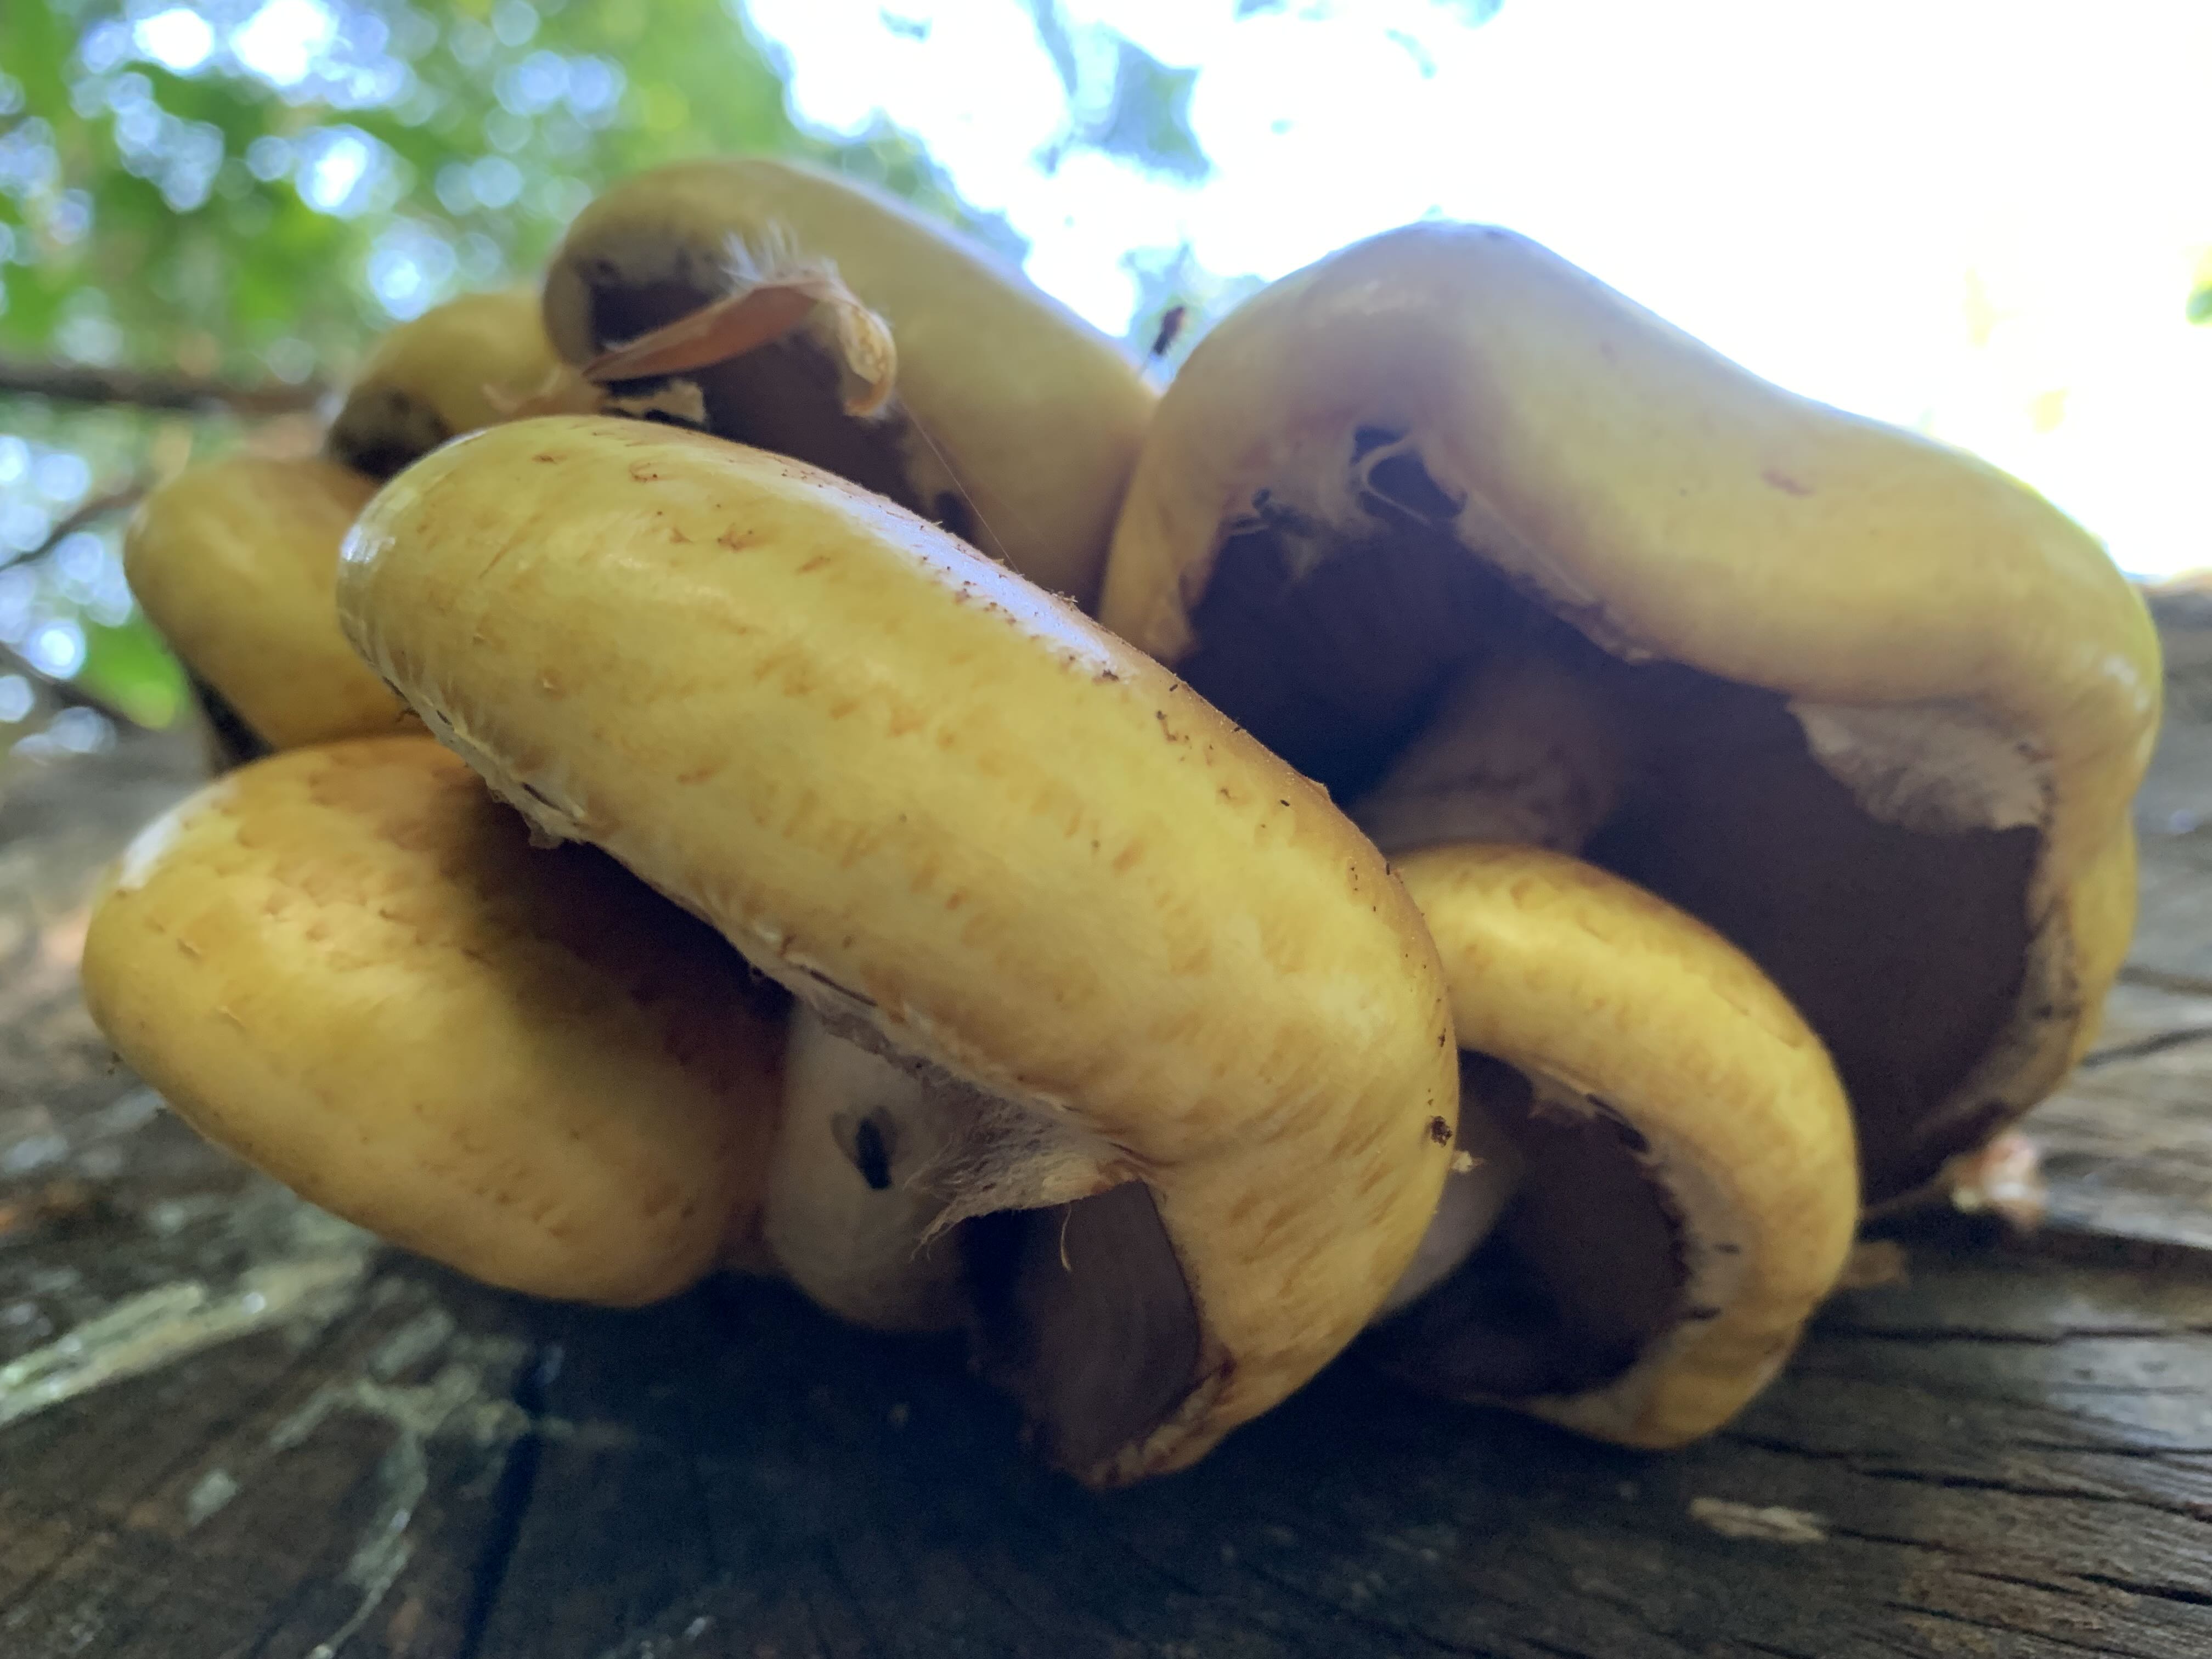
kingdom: Fungi
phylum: Basidiomycota
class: Agaricomycetes
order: Agaricales
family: Strophariaceae
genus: Pholiota
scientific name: Pholiota adiposa
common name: højtsiddende skælhat
